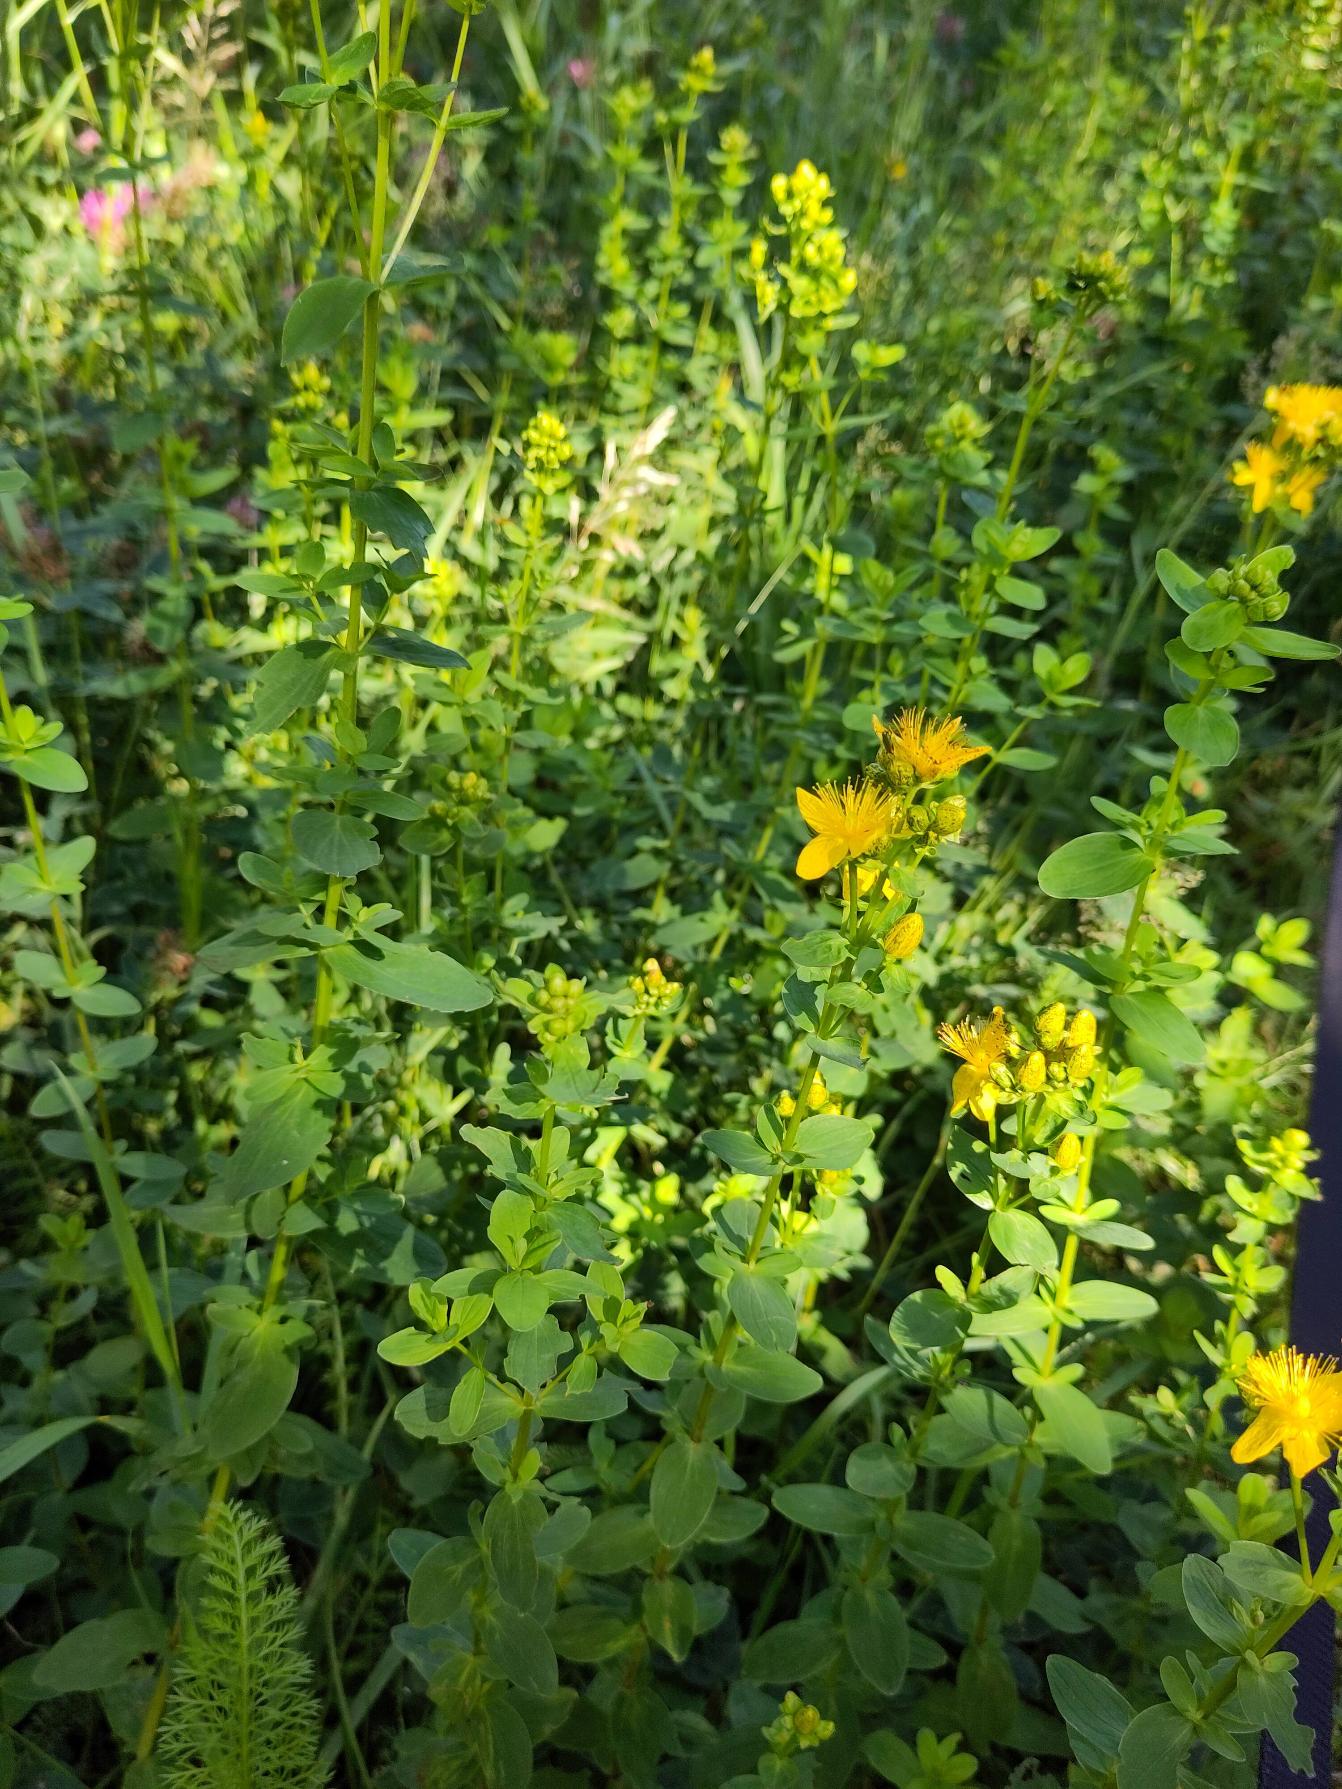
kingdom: Plantae
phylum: Tracheophyta
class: Magnoliopsida
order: Malpighiales
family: Hypericaceae
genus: Hypericum
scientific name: Hypericum maculatum
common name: Kantet perikon
